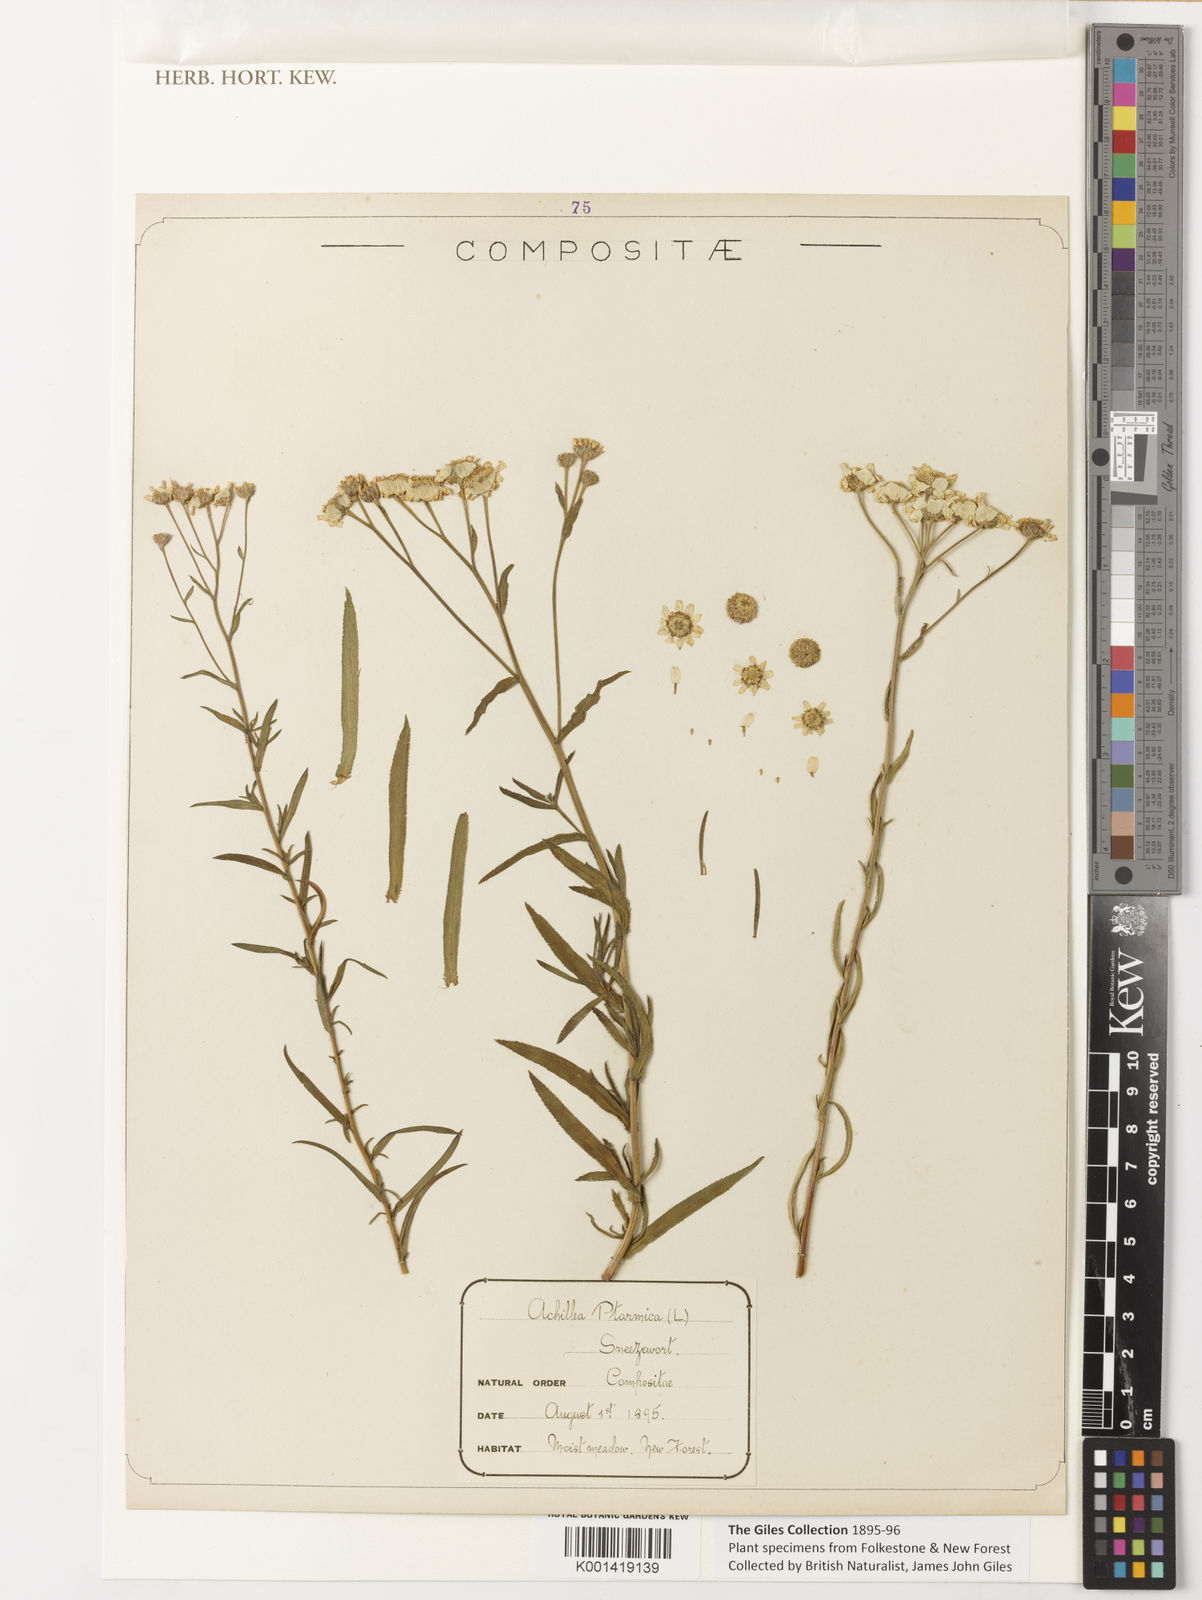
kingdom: Plantae
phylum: Tracheophyta
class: Magnoliopsida
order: Asterales
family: Asteraceae
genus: Achillea
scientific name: Achillea ptarmica
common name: Sneezeweed
